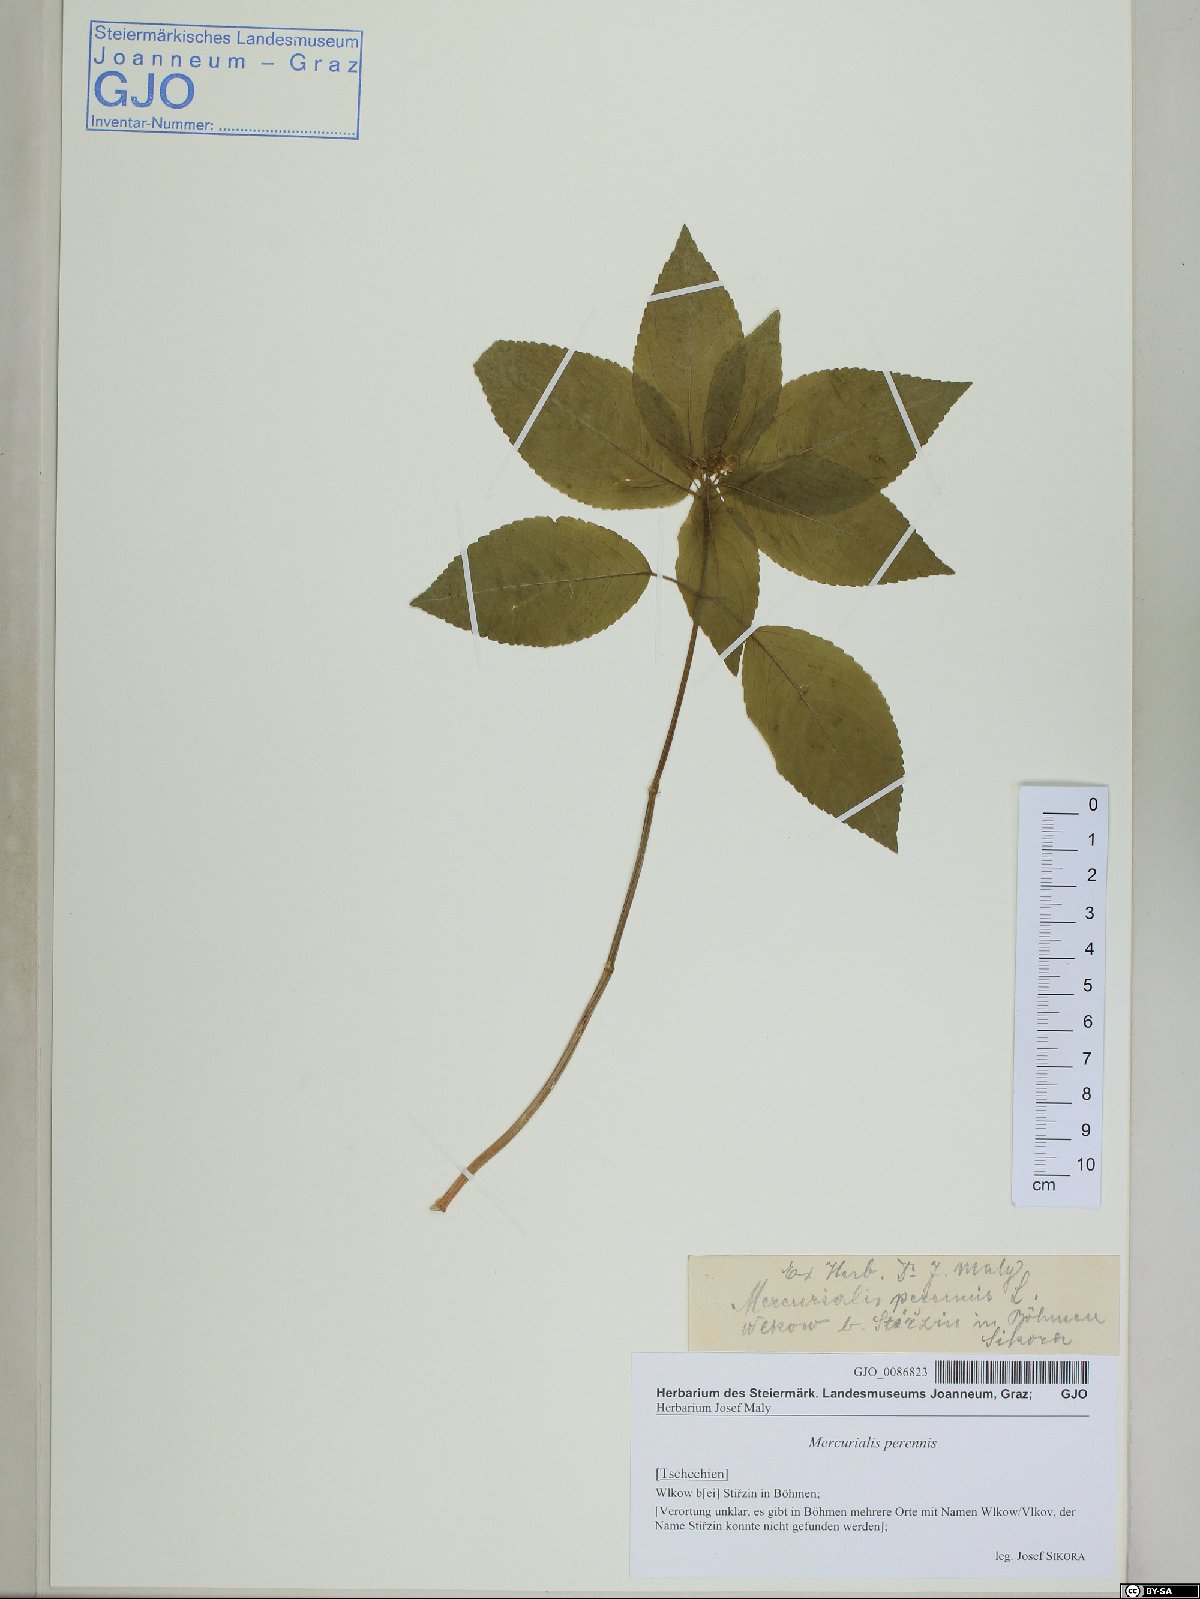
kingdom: Plantae
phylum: Tracheophyta
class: Magnoliopsida
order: Malpighiales
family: Euphorbiaceae
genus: Mercurialis
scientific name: Mercurialis perennis
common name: Dog mercury
